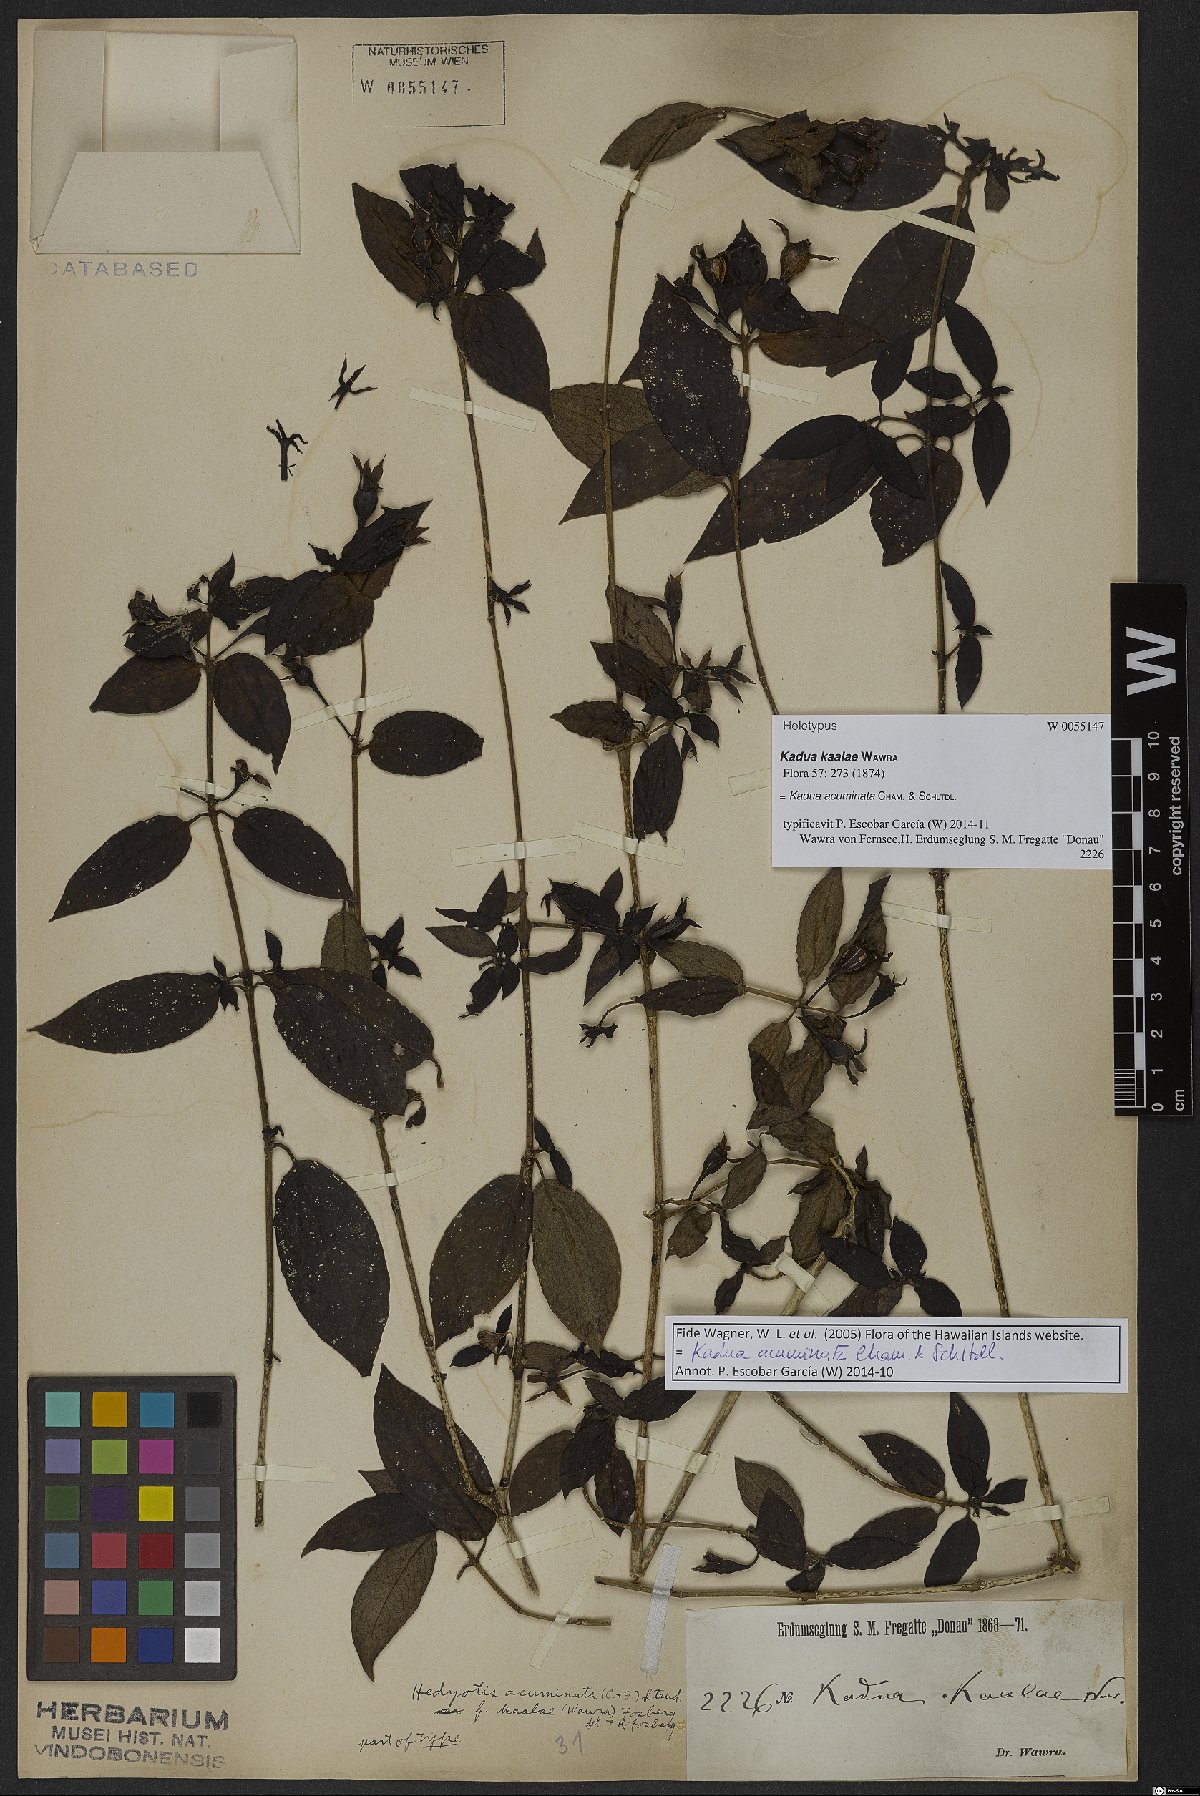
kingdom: Plantae
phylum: Tracheophyta
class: Magnoliopsida
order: Gentianales
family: Rubiaceae
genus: Kadua
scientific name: Kadua acuminata
